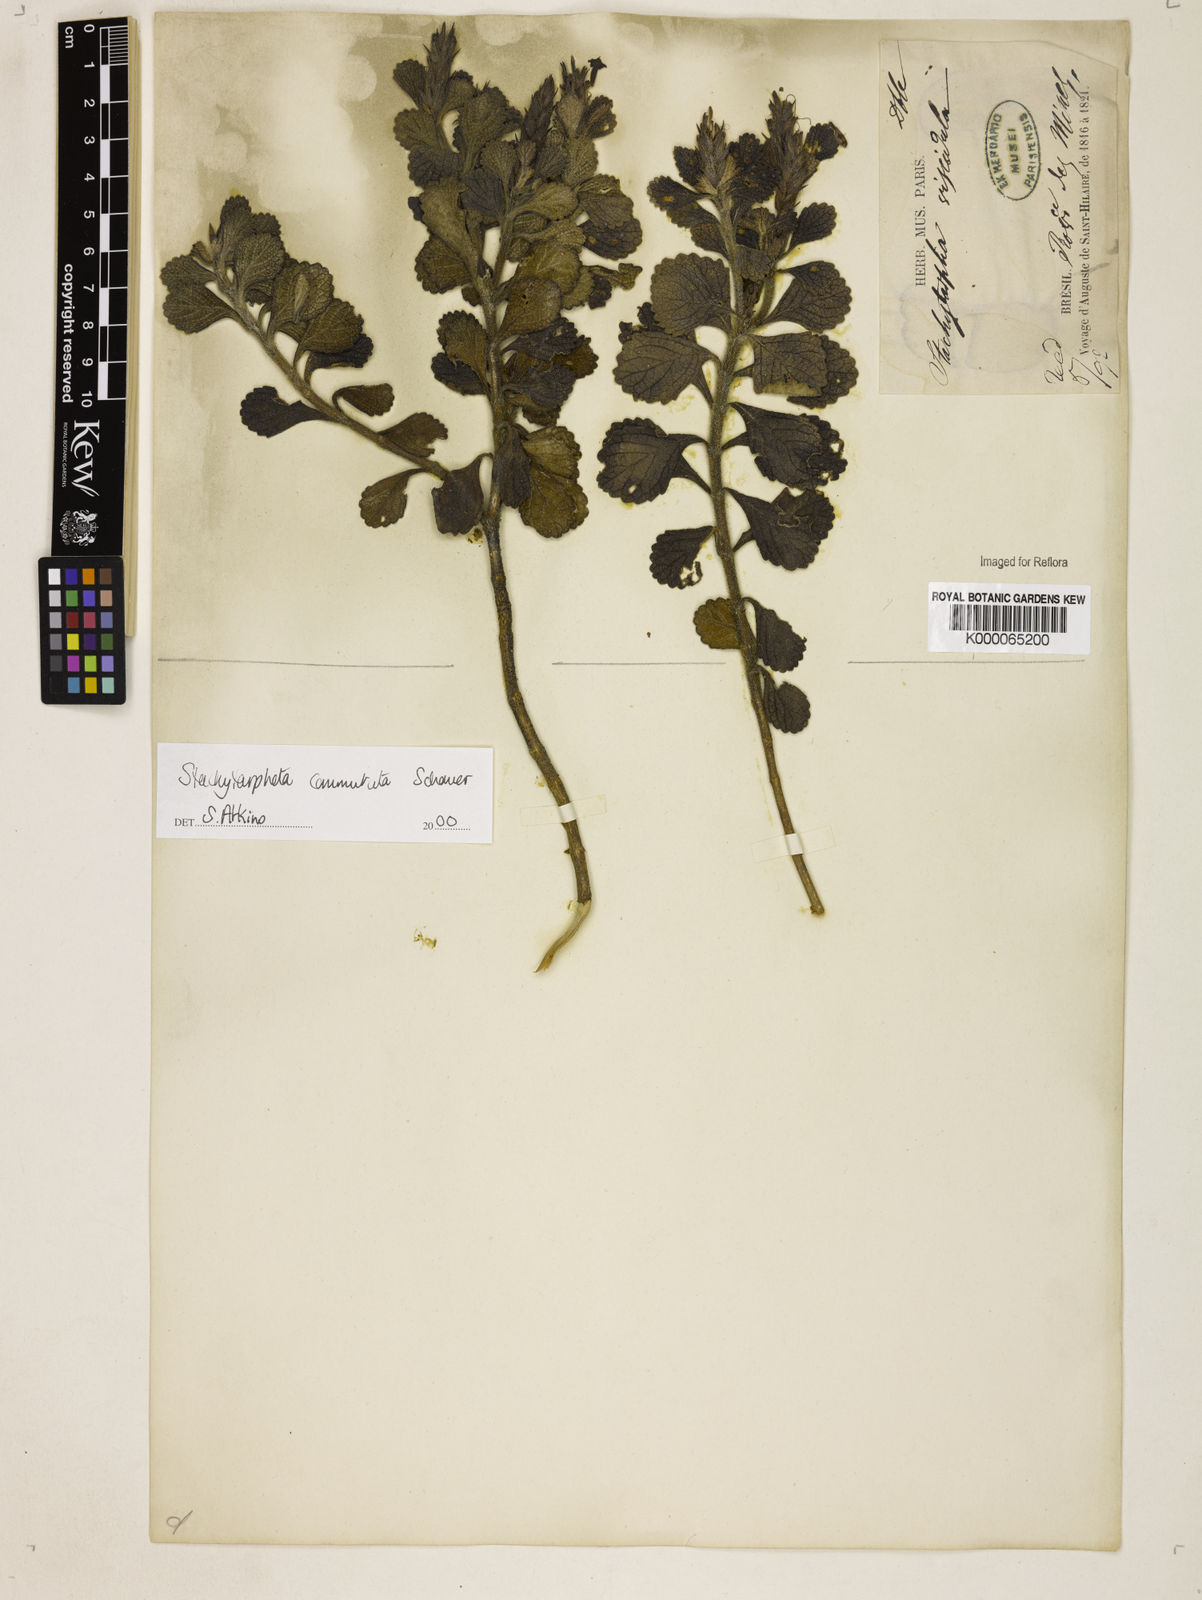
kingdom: Plantae
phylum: Tracheophyta
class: Magnoliopsida
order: Lamiales
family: Verbenaceae
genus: Stachytarpheta
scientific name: Stachytarpheta commutata
